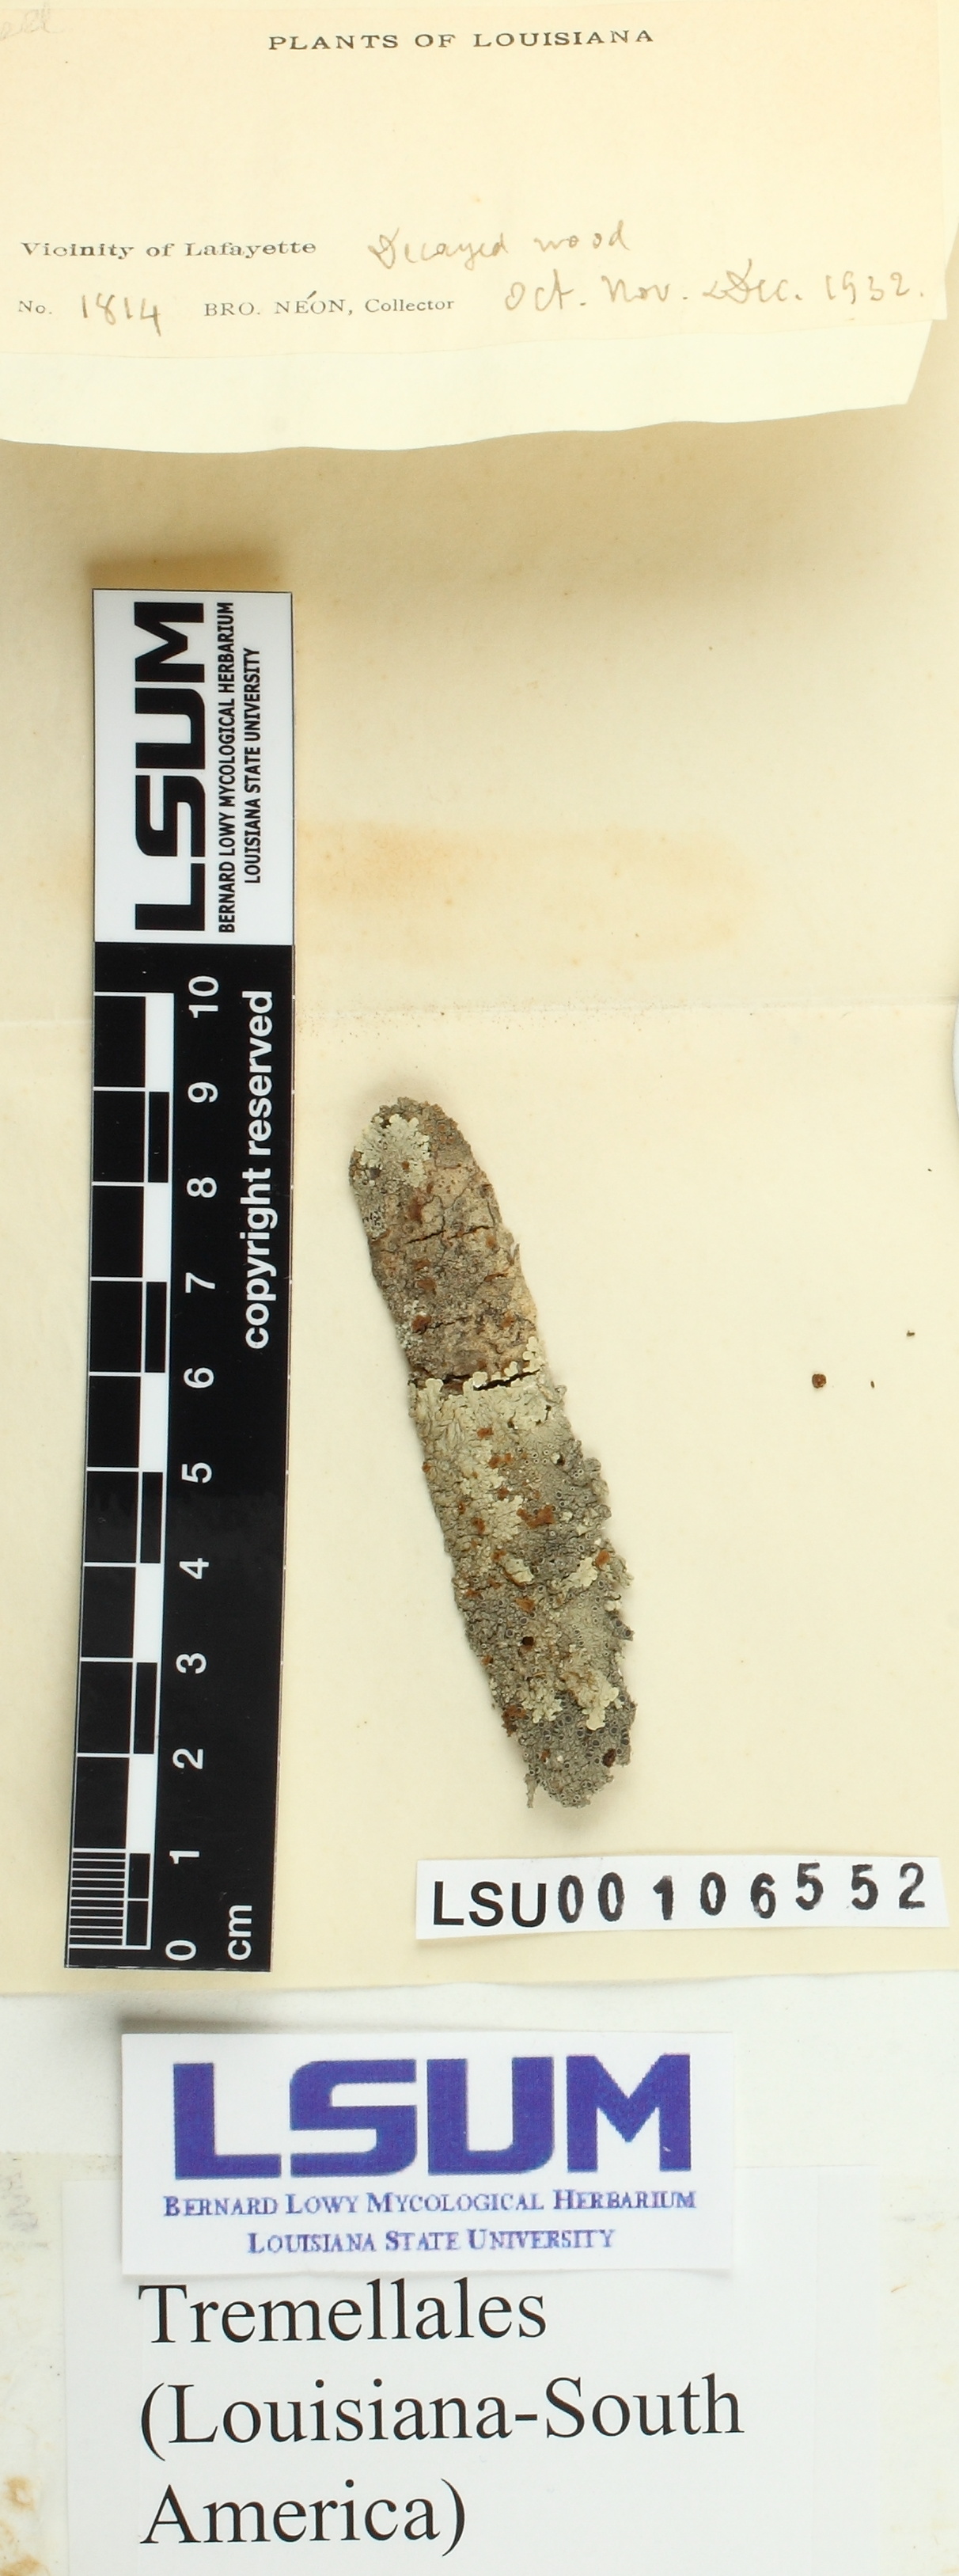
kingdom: Fungi
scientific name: Fungi
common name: Fungi
